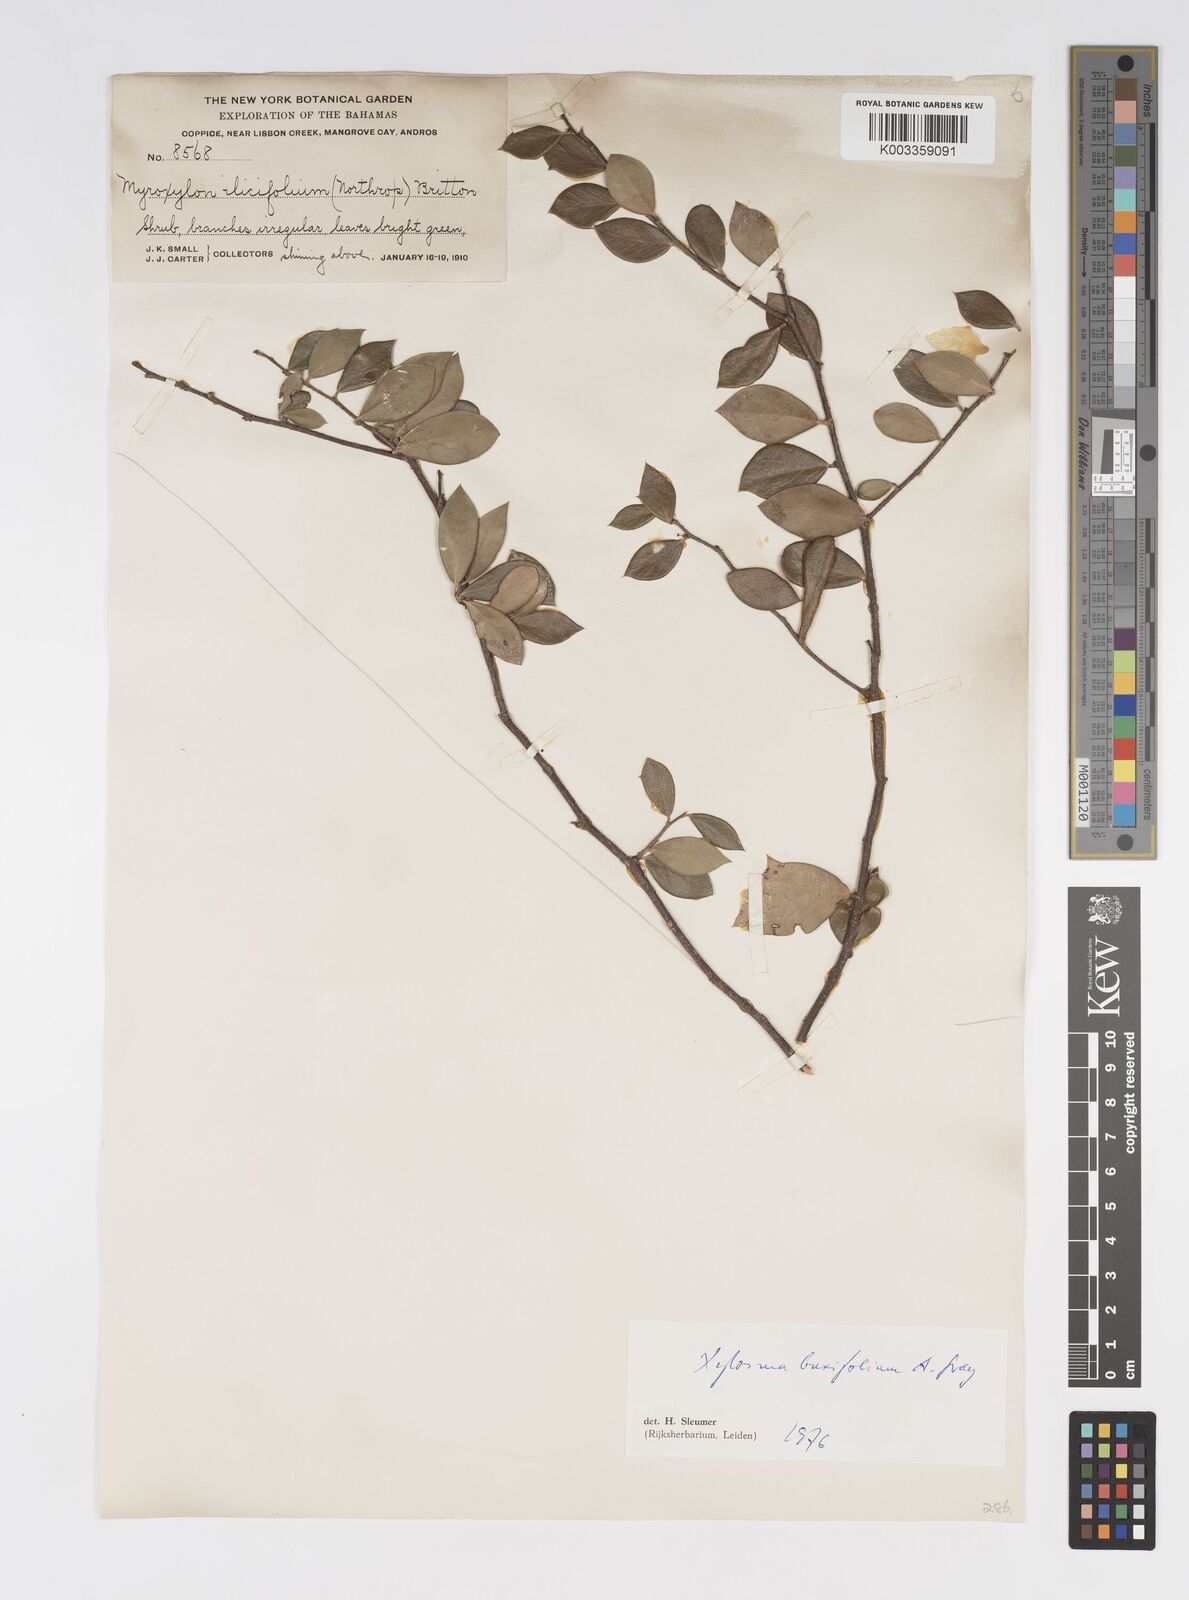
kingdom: Plantae
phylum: Tracheophyta
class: Magnoliopsida
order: Malpighiales
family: Salicaceae
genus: Xylosma
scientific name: Xylosma buxifolia
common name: Cockspur
